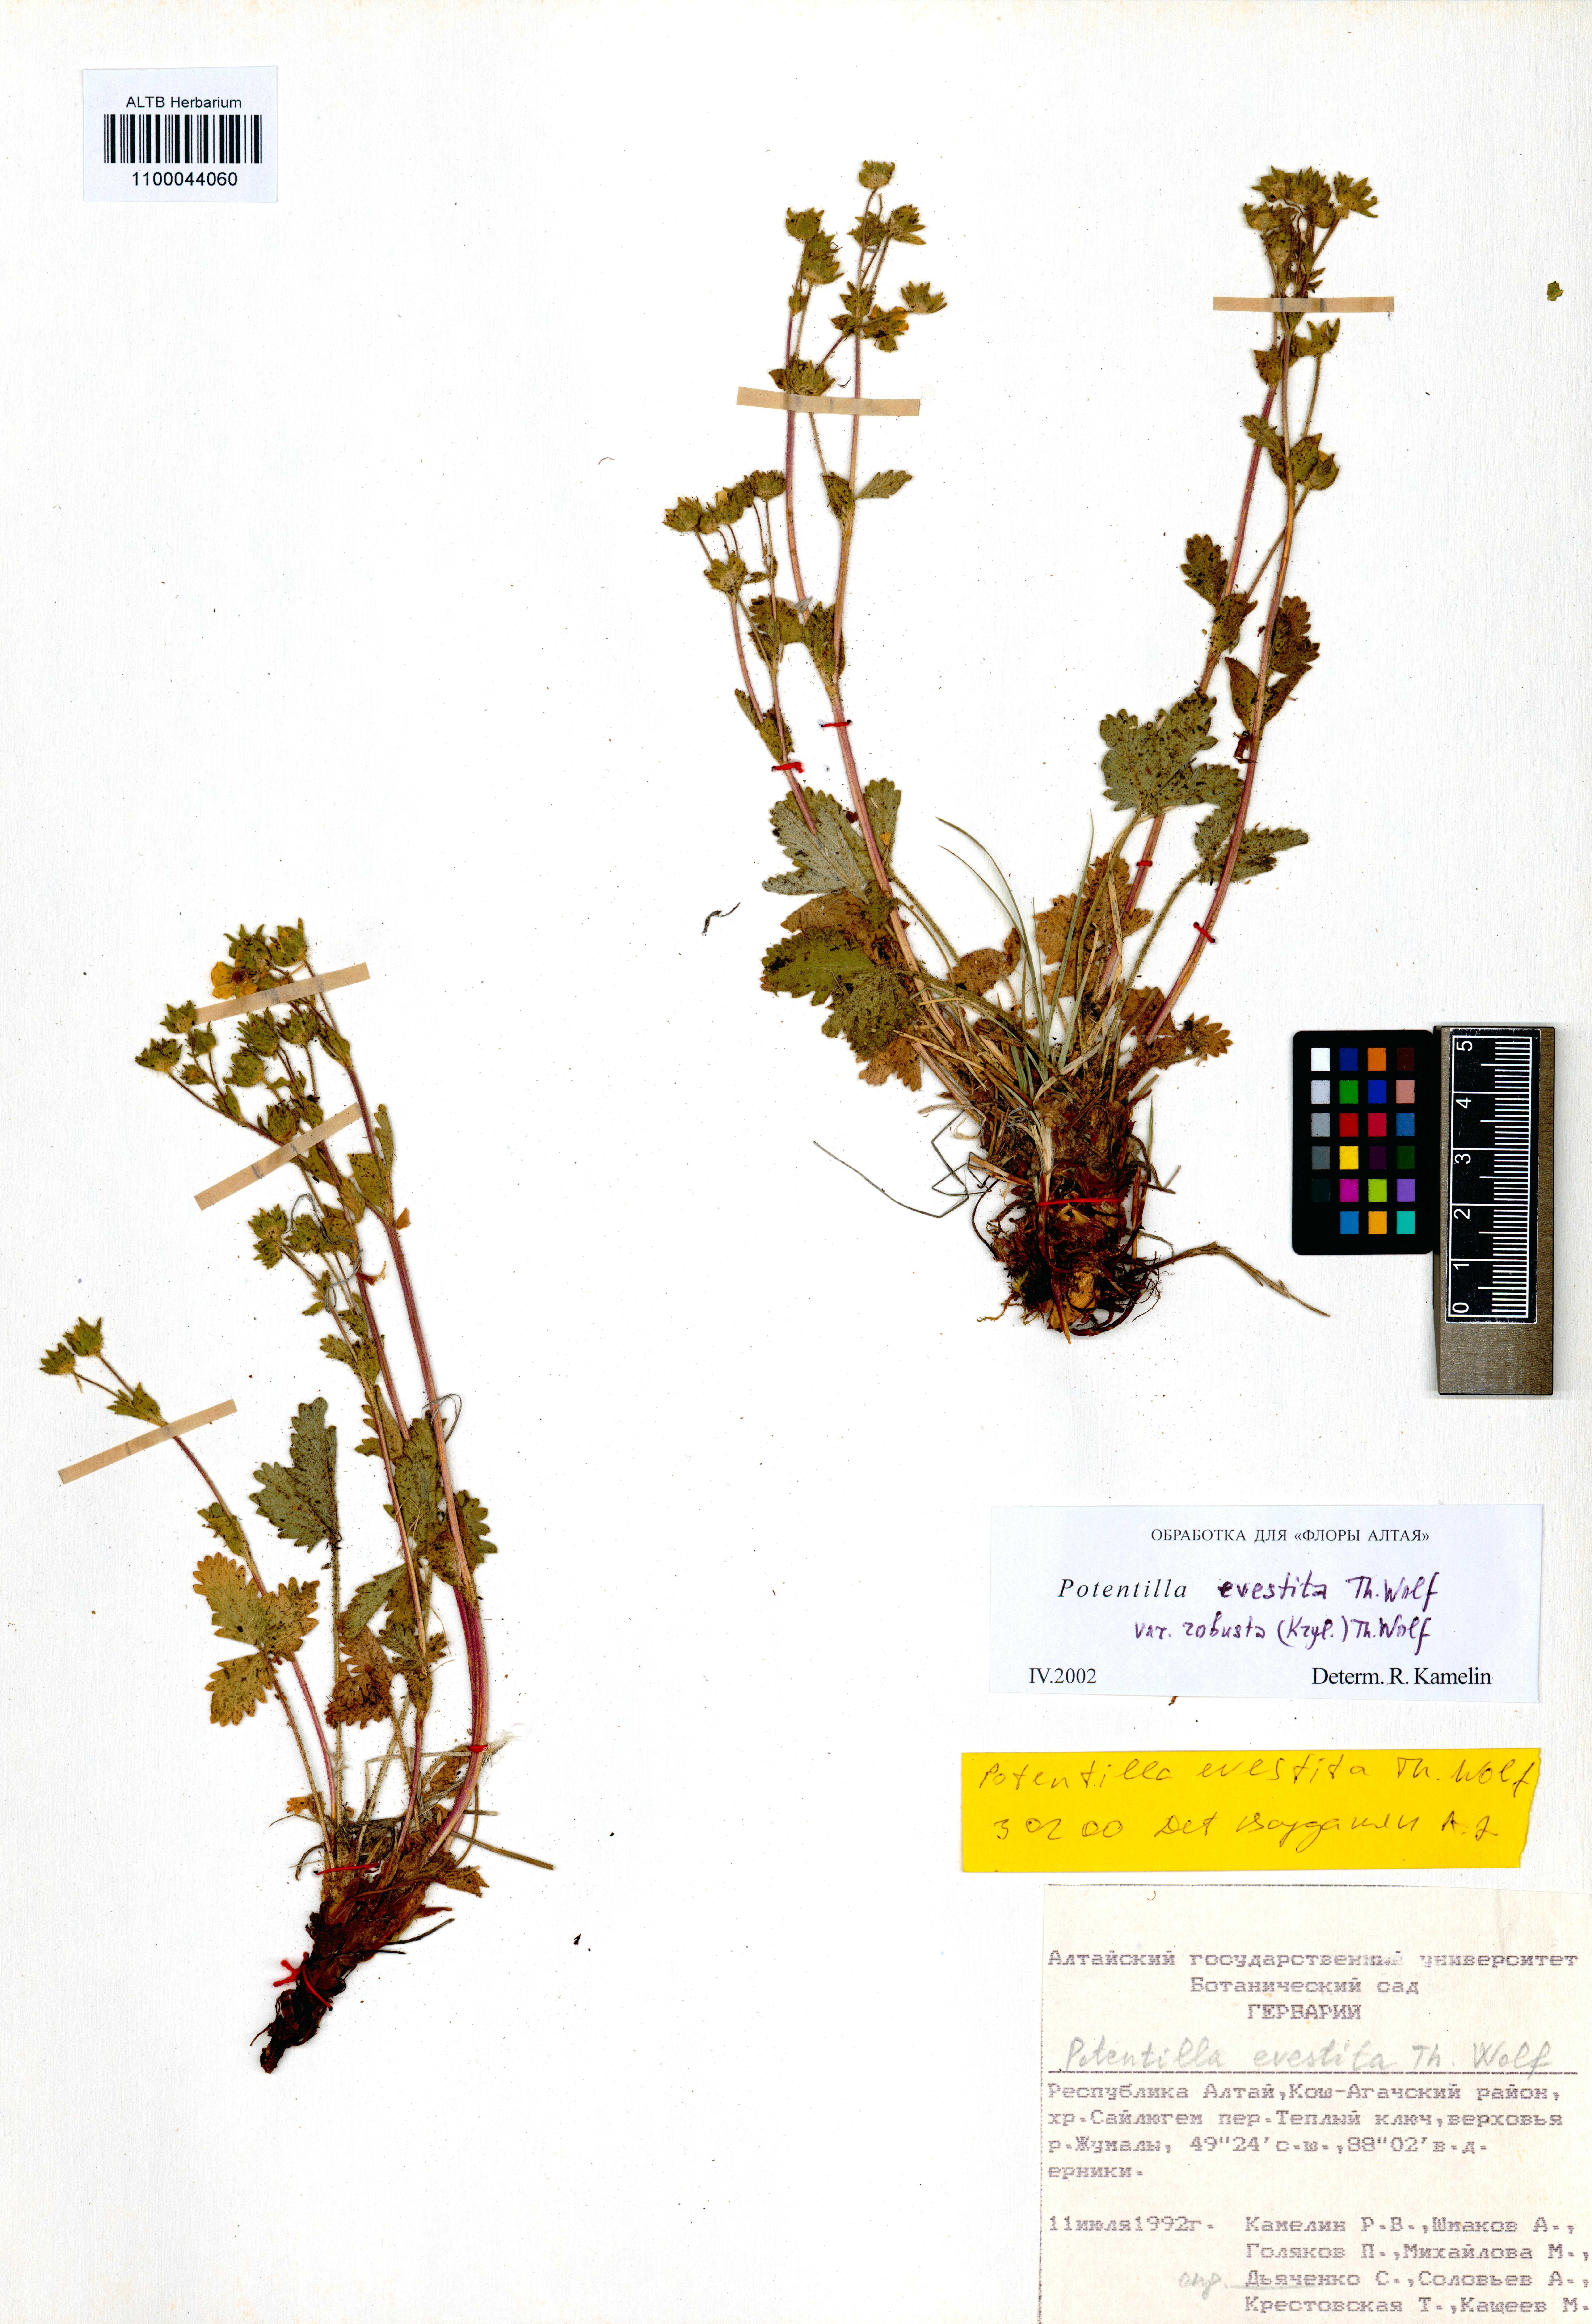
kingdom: Plantae
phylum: Tracheophyta
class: Magnoliopsida
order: Rosales
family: Rosaceae
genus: Potentilla
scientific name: Potentilla evestita
